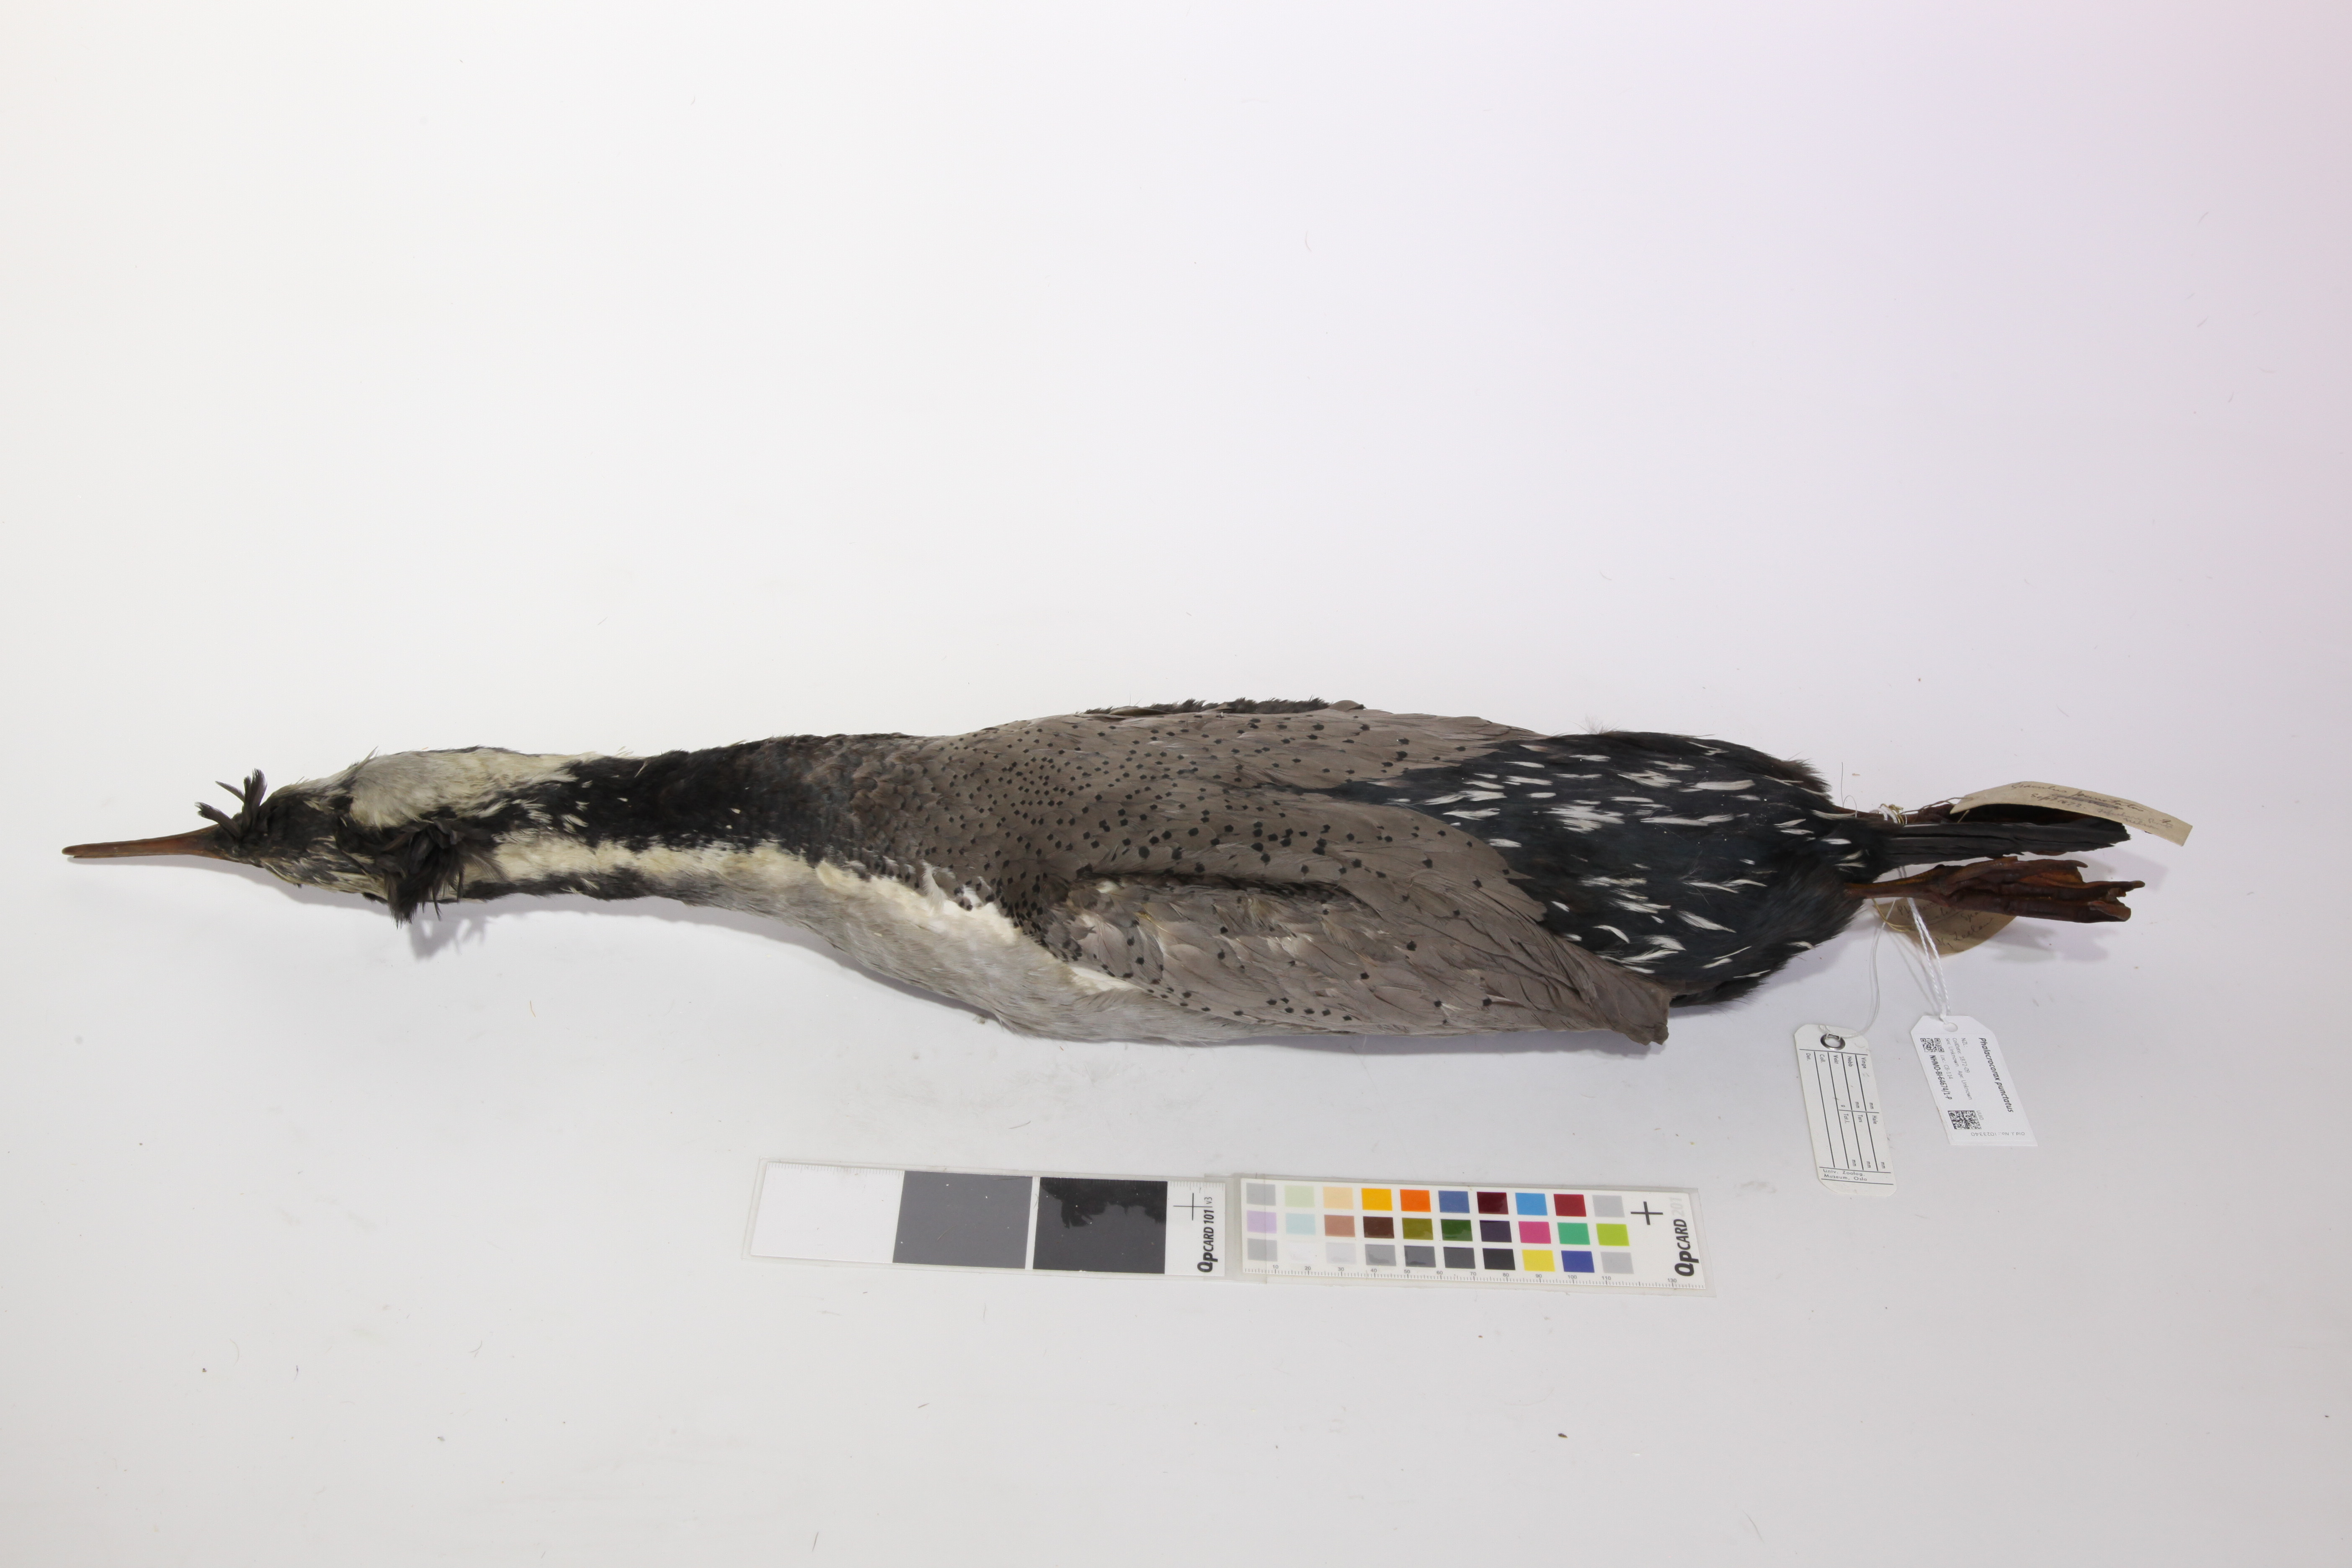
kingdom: Animalia
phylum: Chordata
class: Aves
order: Suliformes
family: Phalacrocoracidae
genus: Phalacrocorax
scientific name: Phalacrocorax punctatus
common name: Spotted shag
